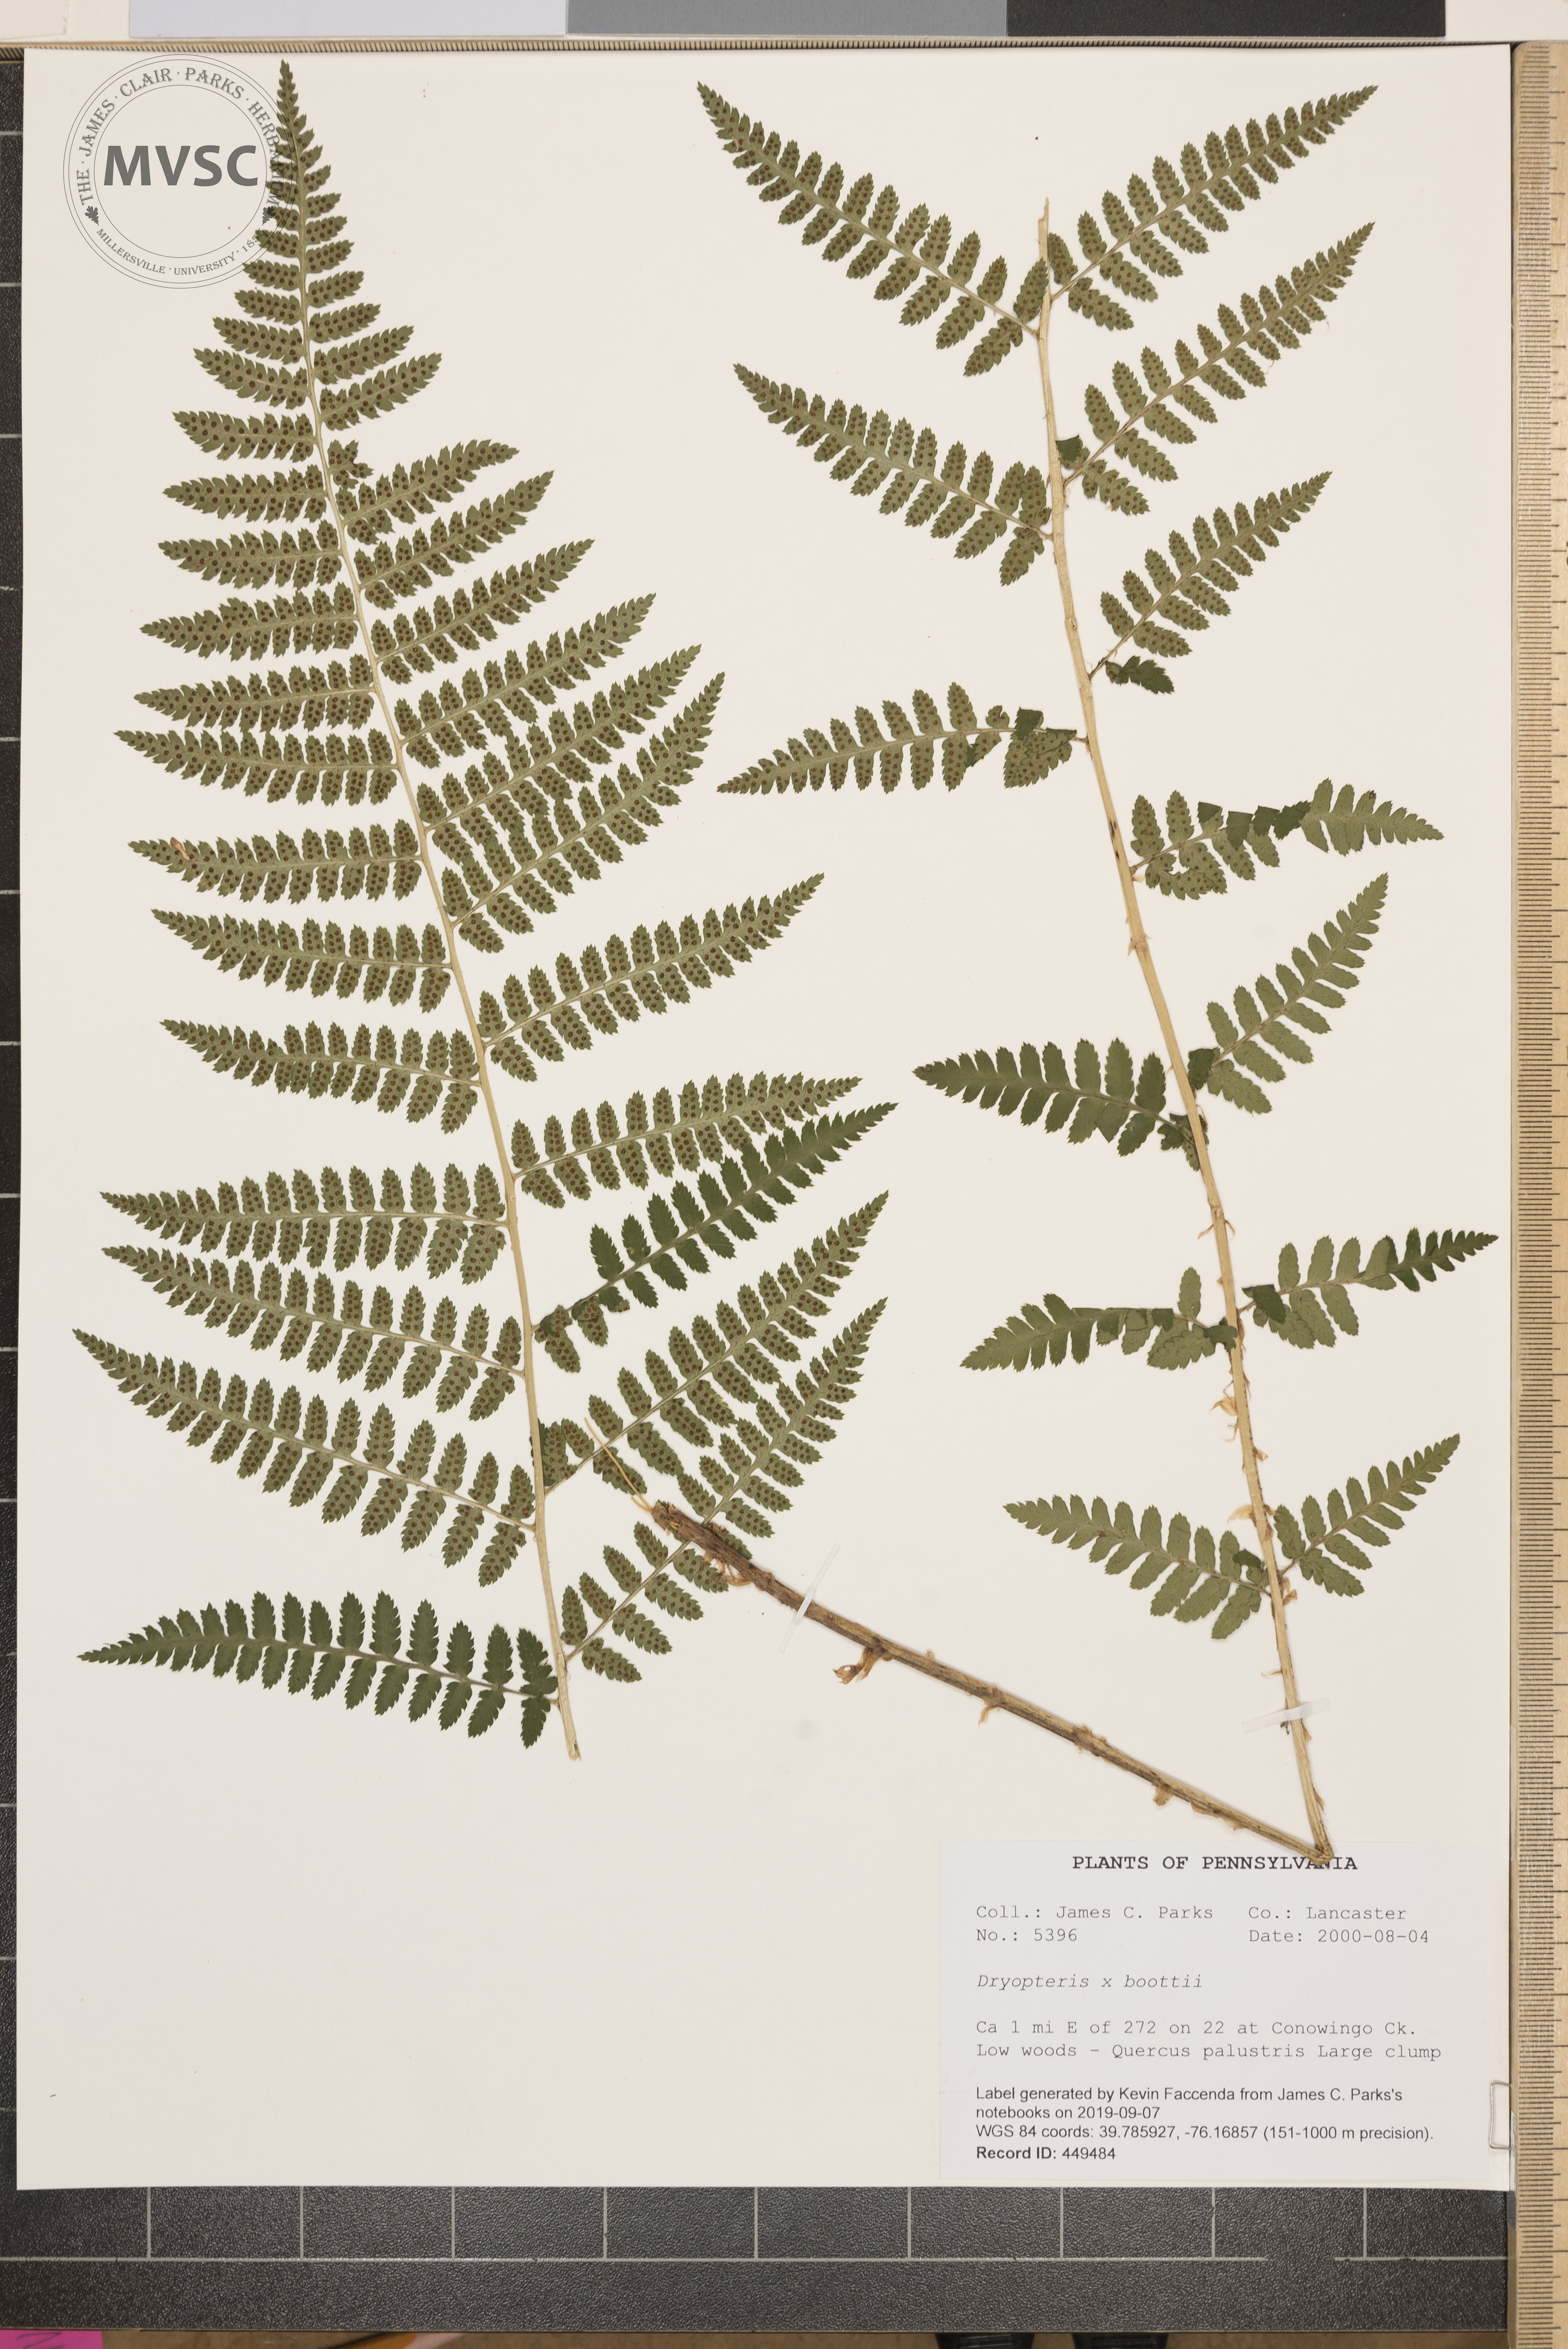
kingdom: Plantae
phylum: Tracheophyta
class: Polypodiopsida
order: Polypodiales
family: Dryopteridaceae
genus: Dryopteris
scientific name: Dryopteris boottii
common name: Boott's fern
